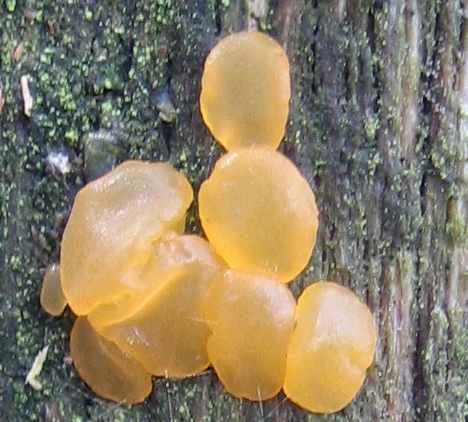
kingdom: Fungi
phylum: Basidiomycota
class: Dacrymycetes
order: Dacrymycetales
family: Dacrymycetaceae
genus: Dacrymyces
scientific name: Dacrymyces stillatus
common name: almindelig tåresvamp
